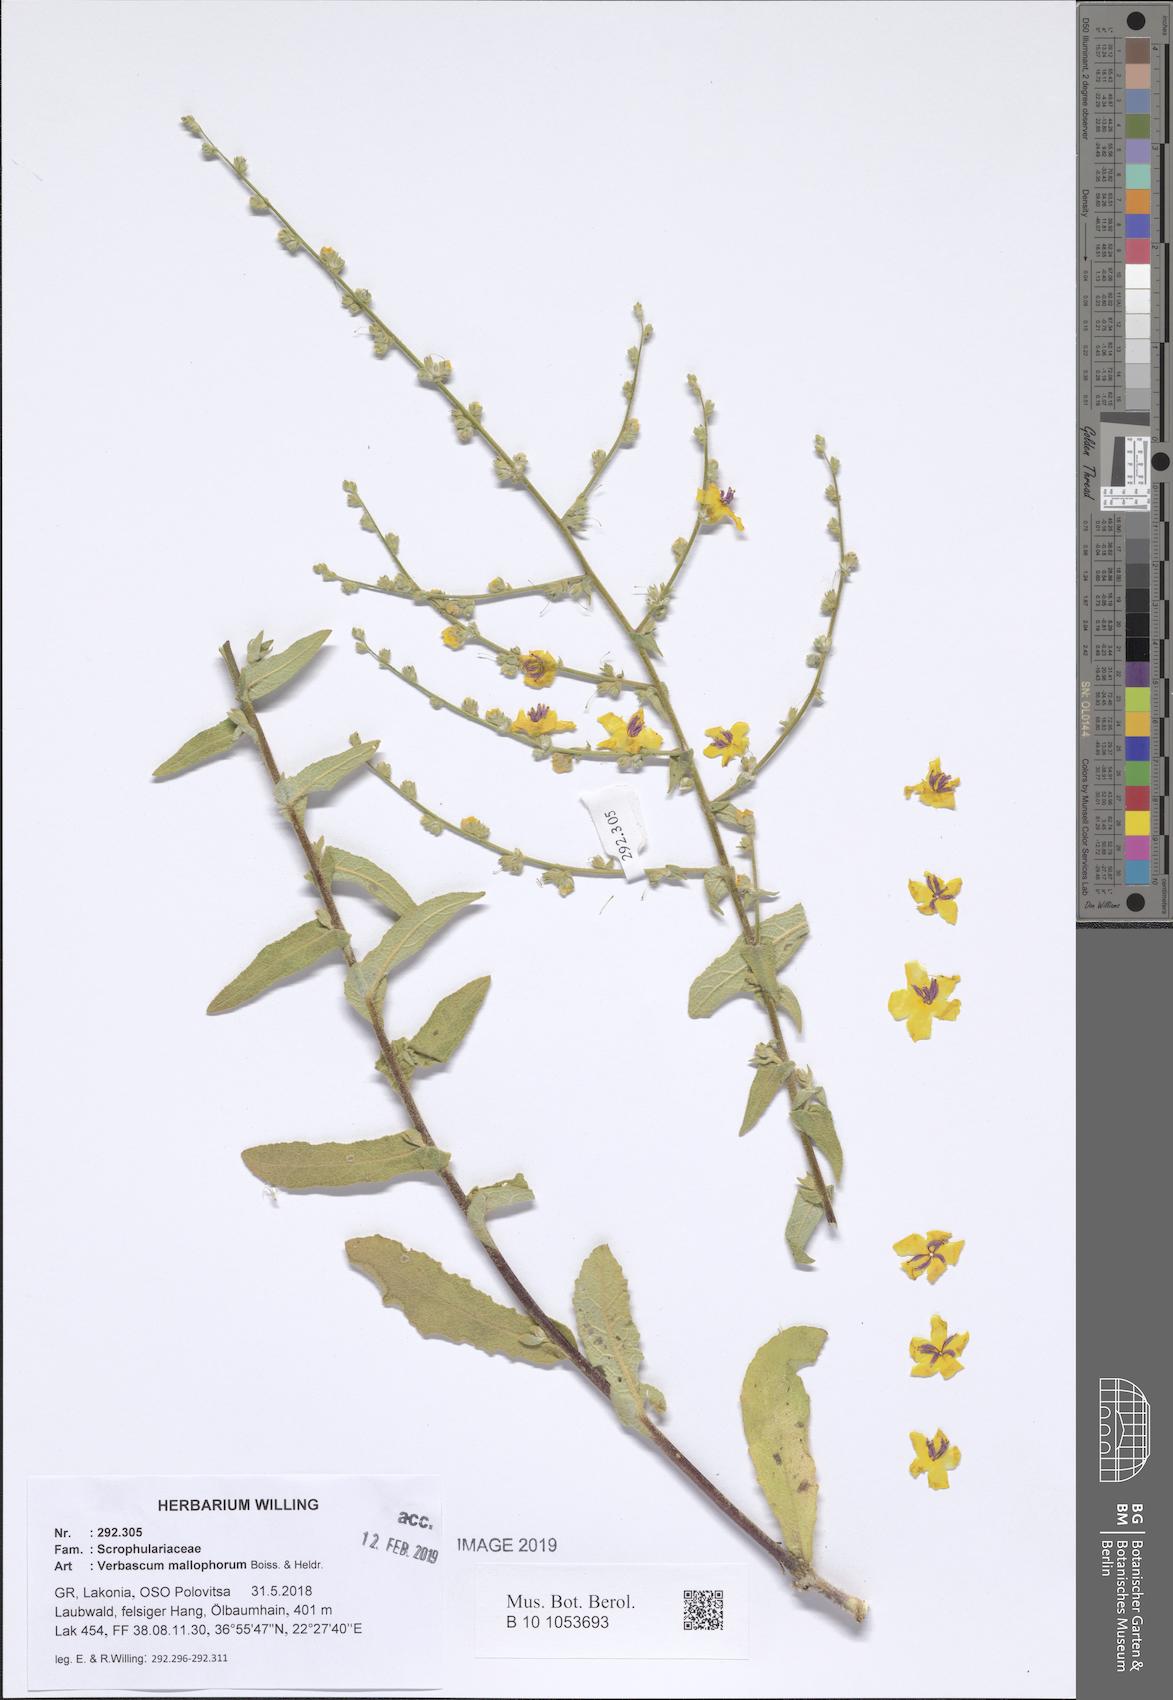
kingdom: Plantae
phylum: Tracheophyta
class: Magnoliopsida
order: Lamiales
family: Scrophulariaceae
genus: Verbascum
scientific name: Verbascum mallophorum
